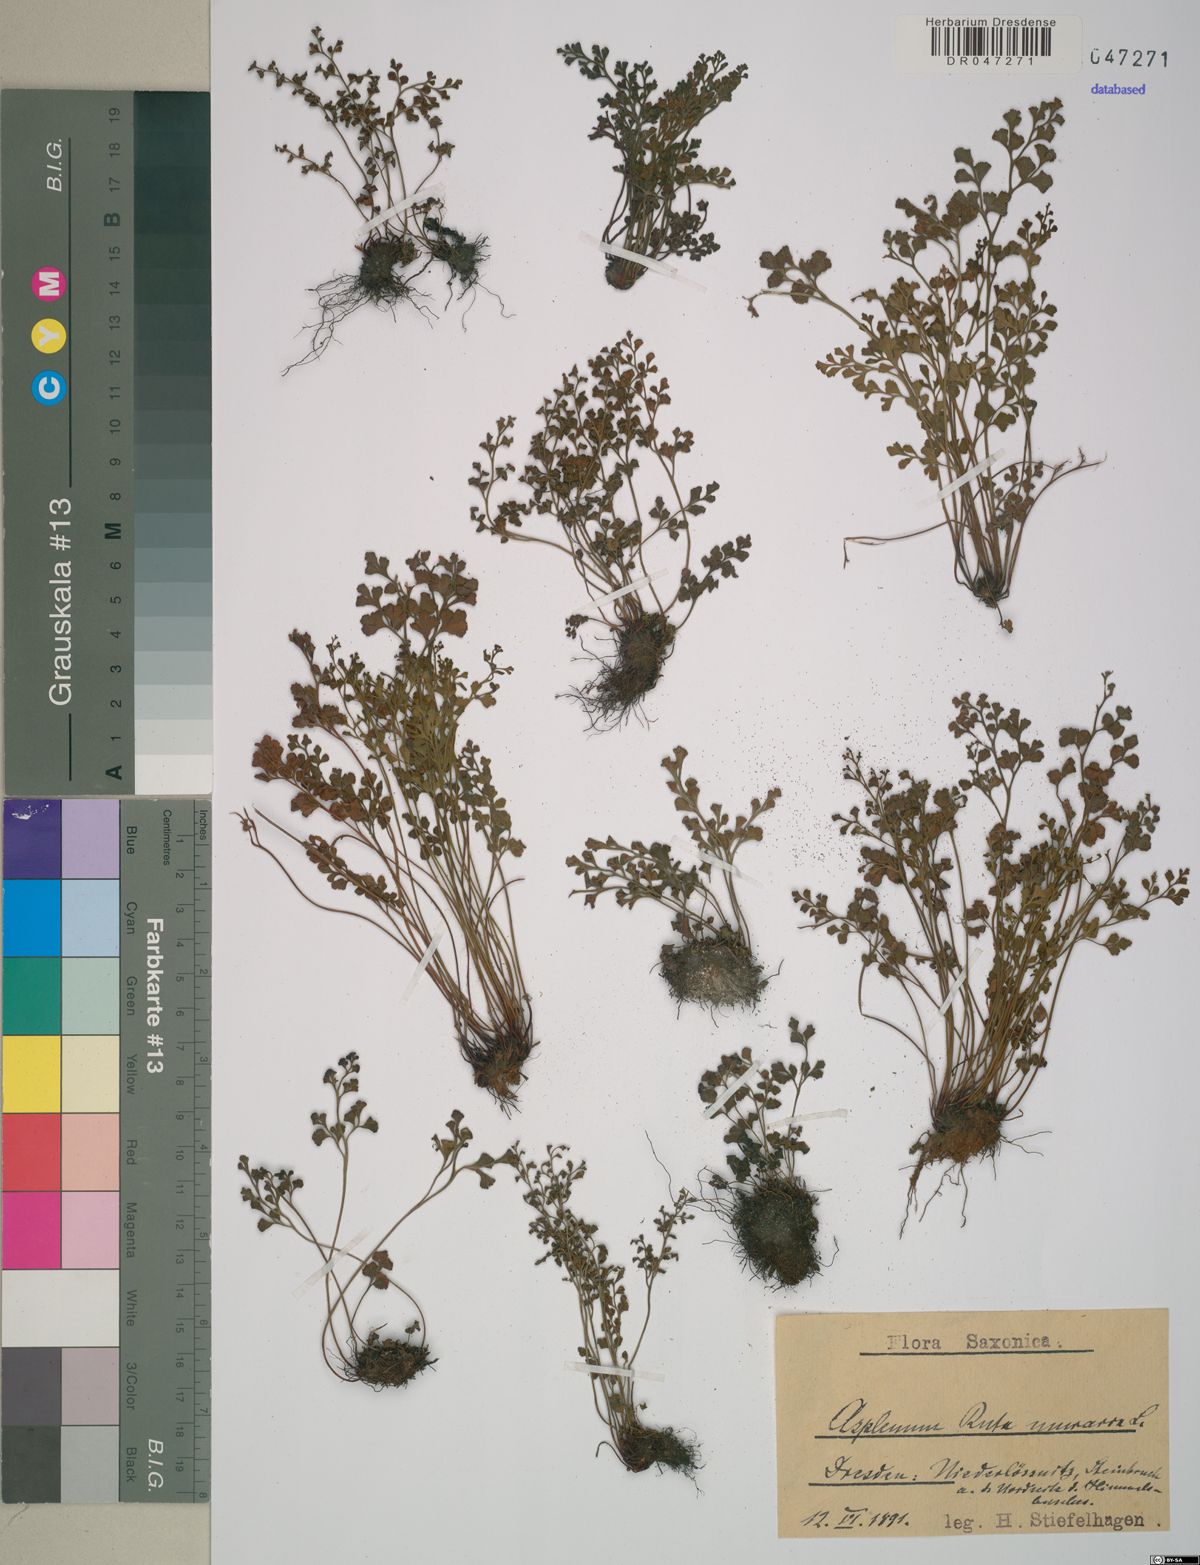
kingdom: Plantae
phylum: Tracheophyta
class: Polypodiopsida
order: Polypodiales
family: Aspleniaceae
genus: Asplenium
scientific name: Asplenium ruta-muraria
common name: Wall-rue
